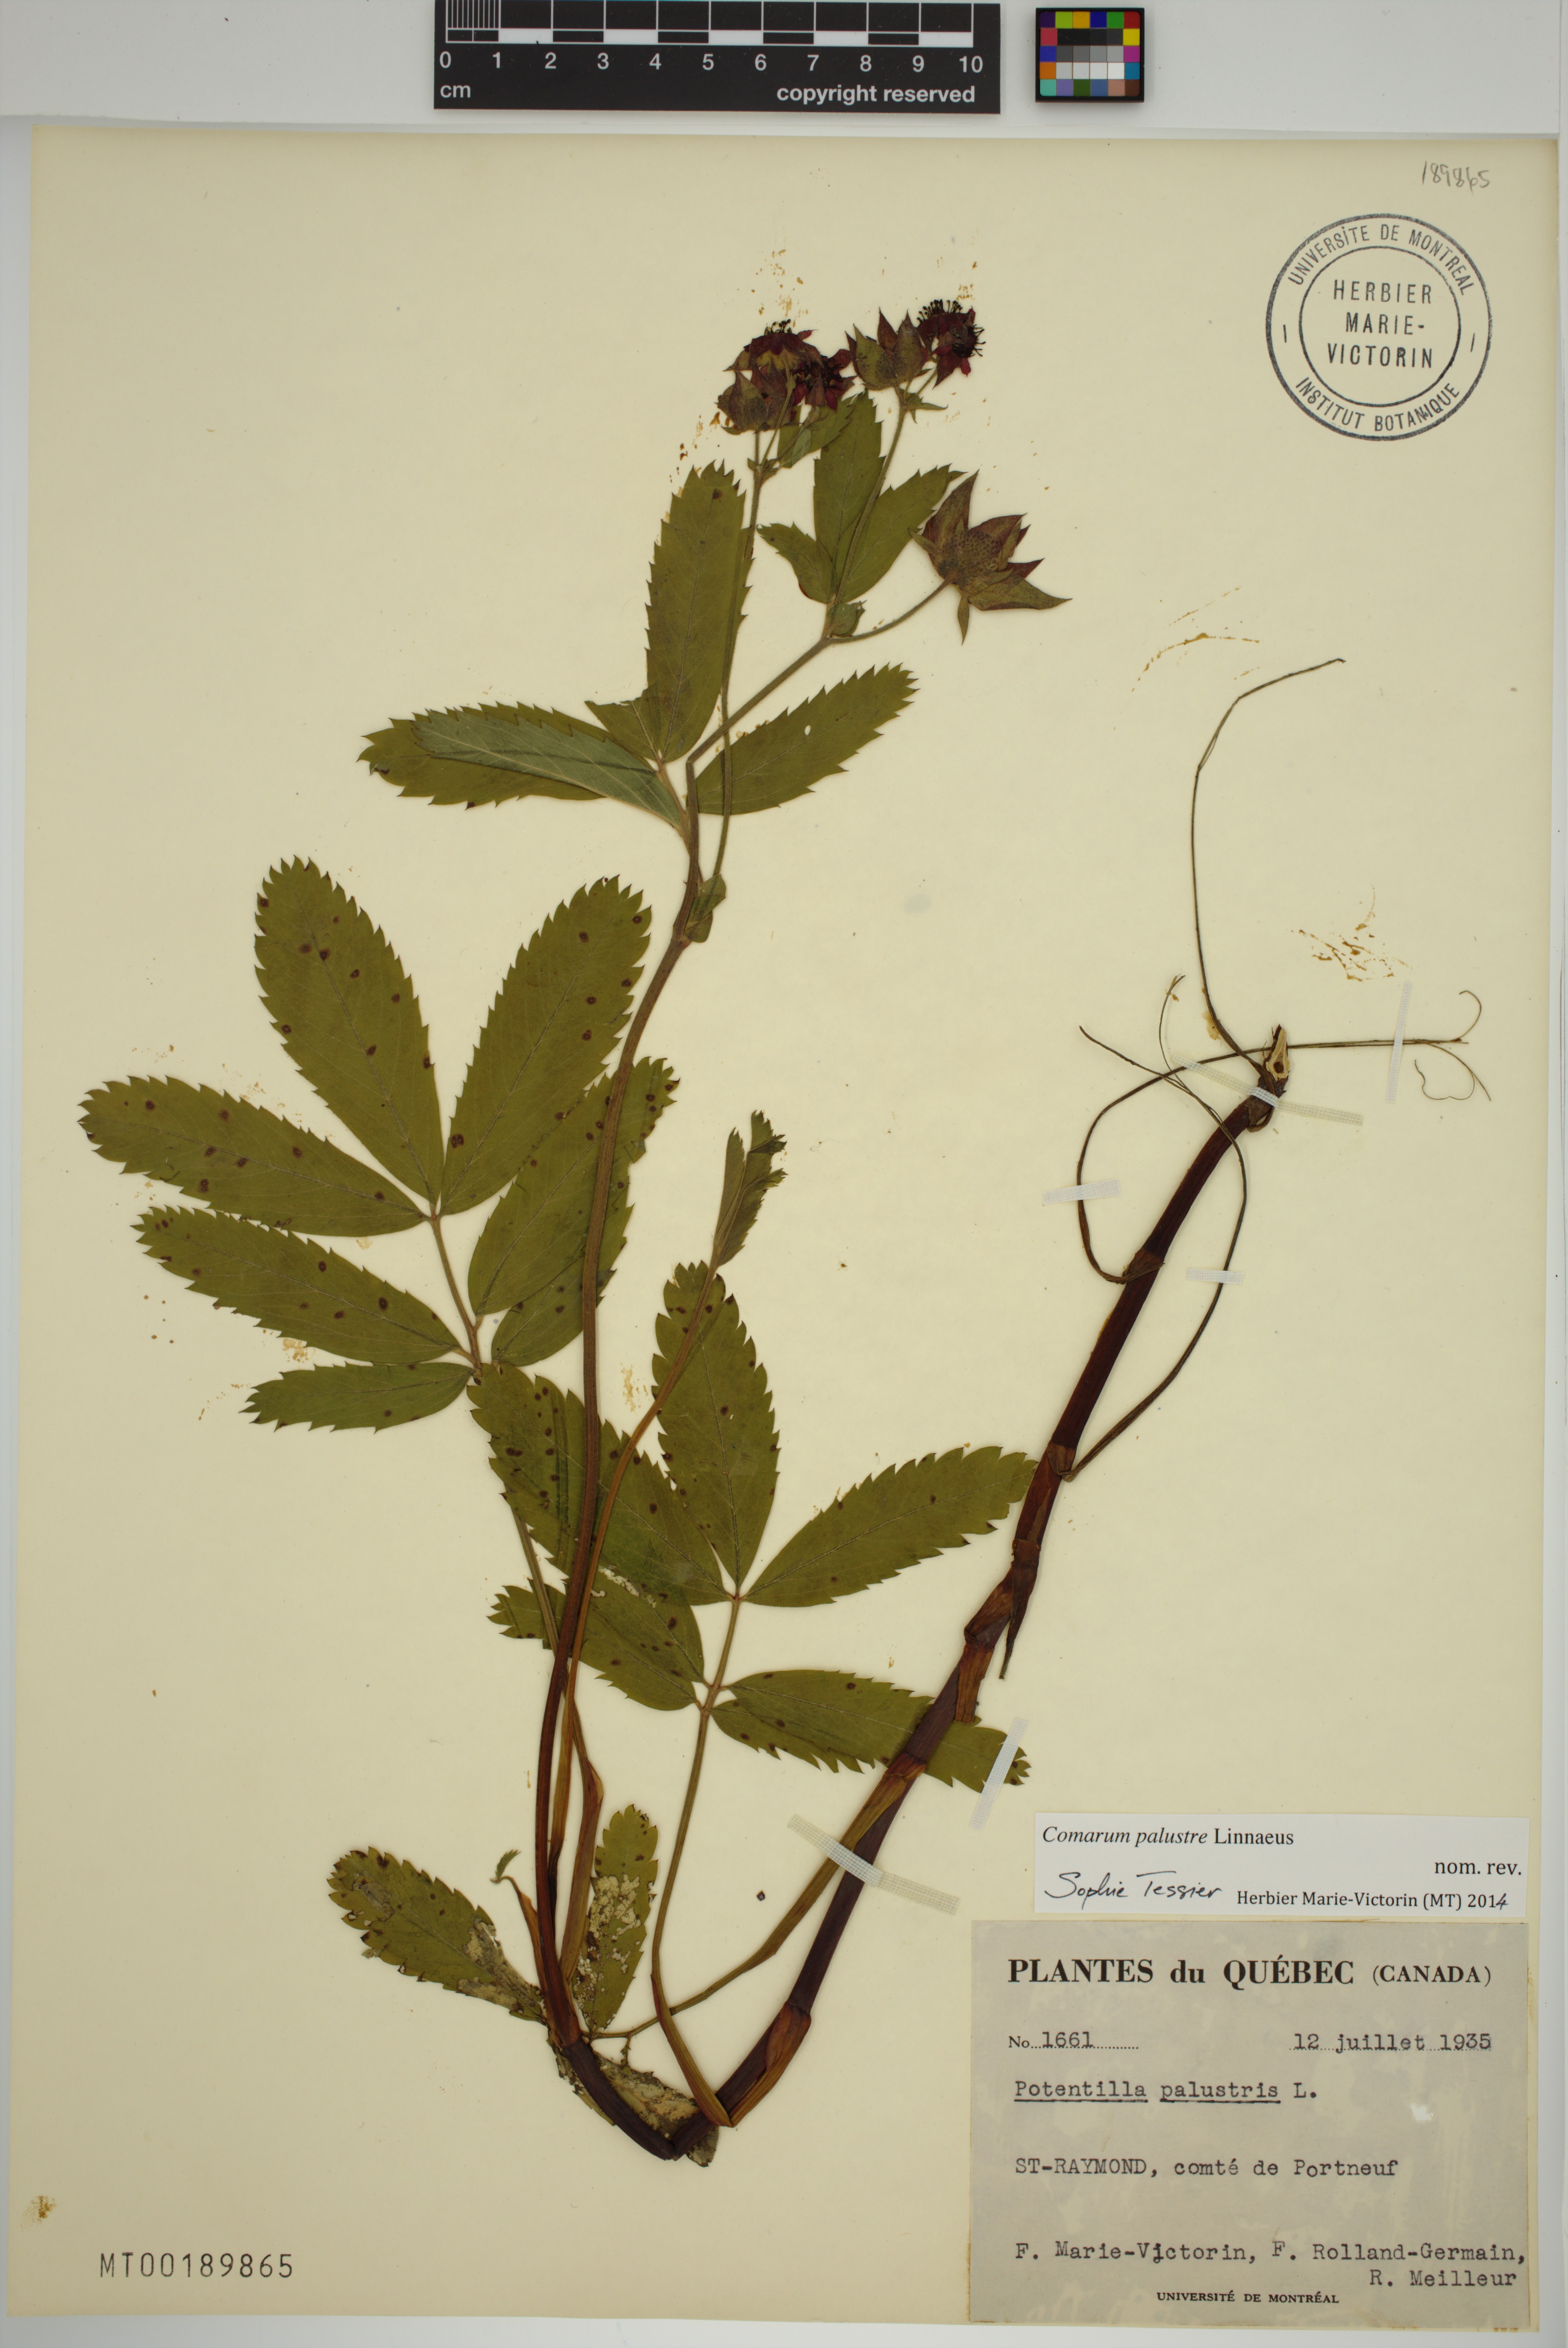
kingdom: Plantae
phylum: Tracheophyta
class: Magnoliopsida
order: Rosales
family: Rosaceae
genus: Comarum
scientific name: Comarum palustre
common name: Marsh cinquefoil
